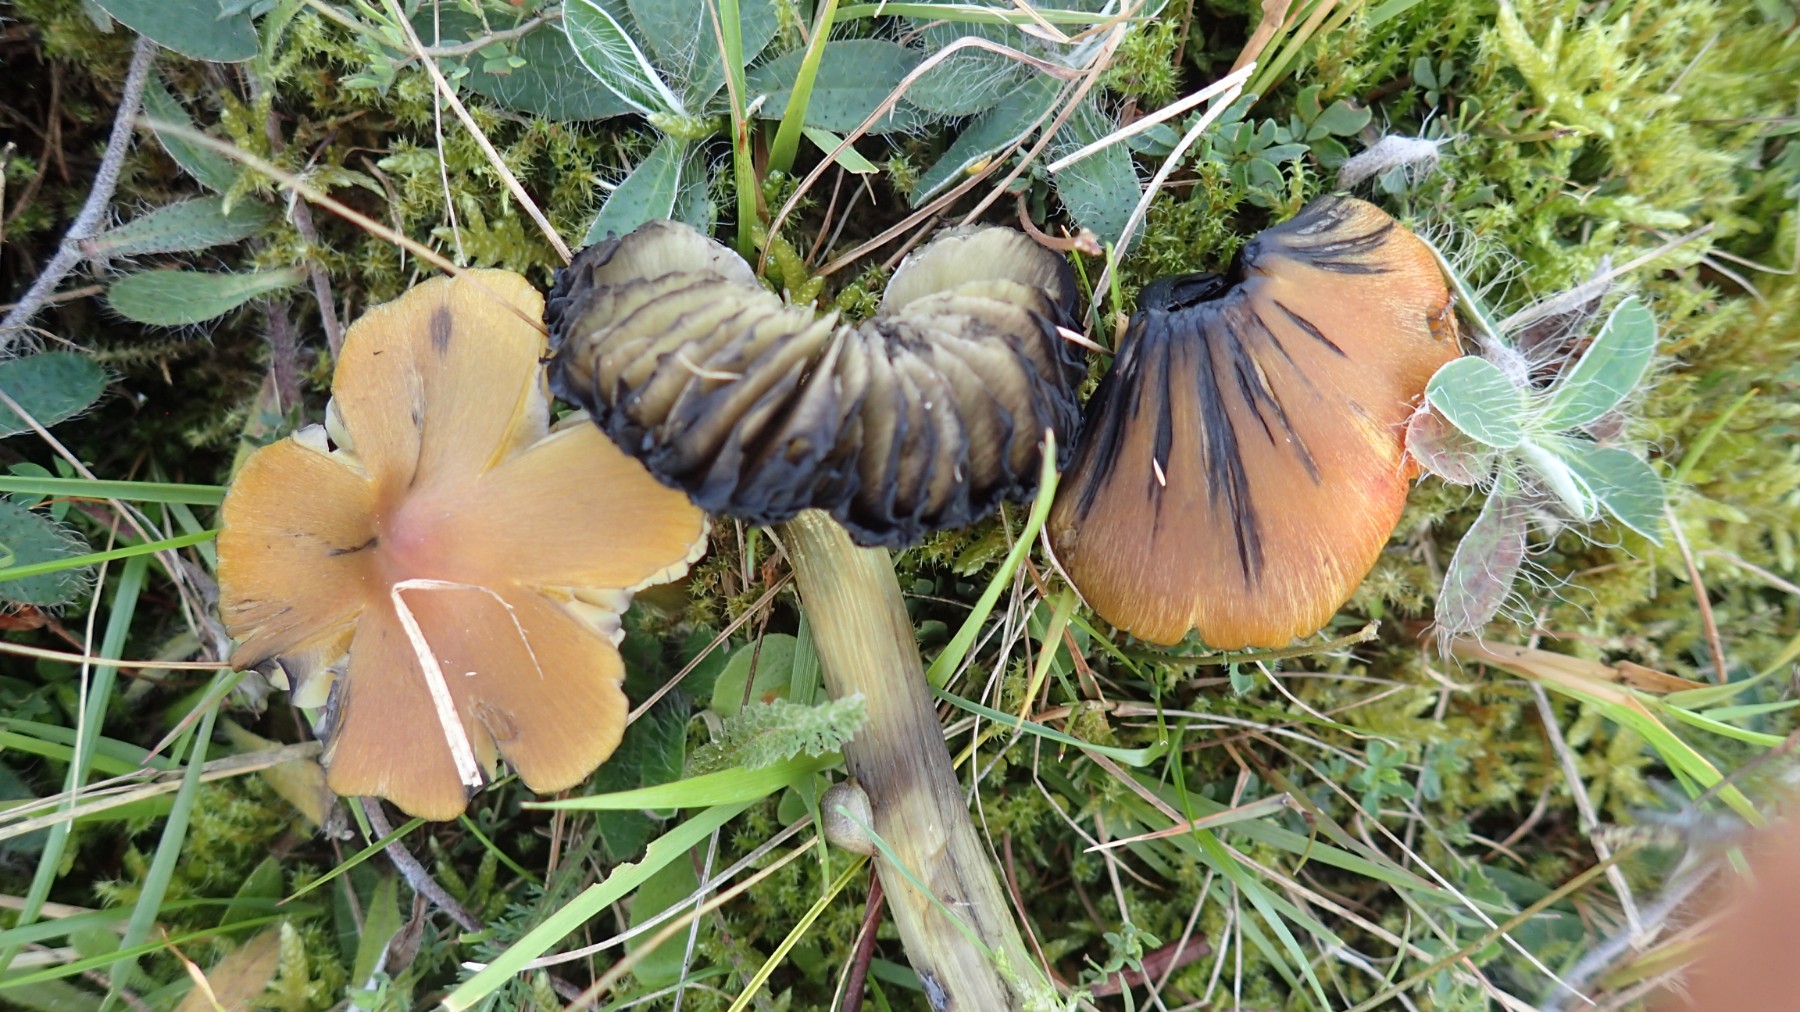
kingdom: Fungi
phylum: Basidiomycota
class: Agaricomycetes
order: Agaricales
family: Hygrophoraceae
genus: Hygrocybe
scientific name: Hygrocybe conica
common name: kegle-vokshat
